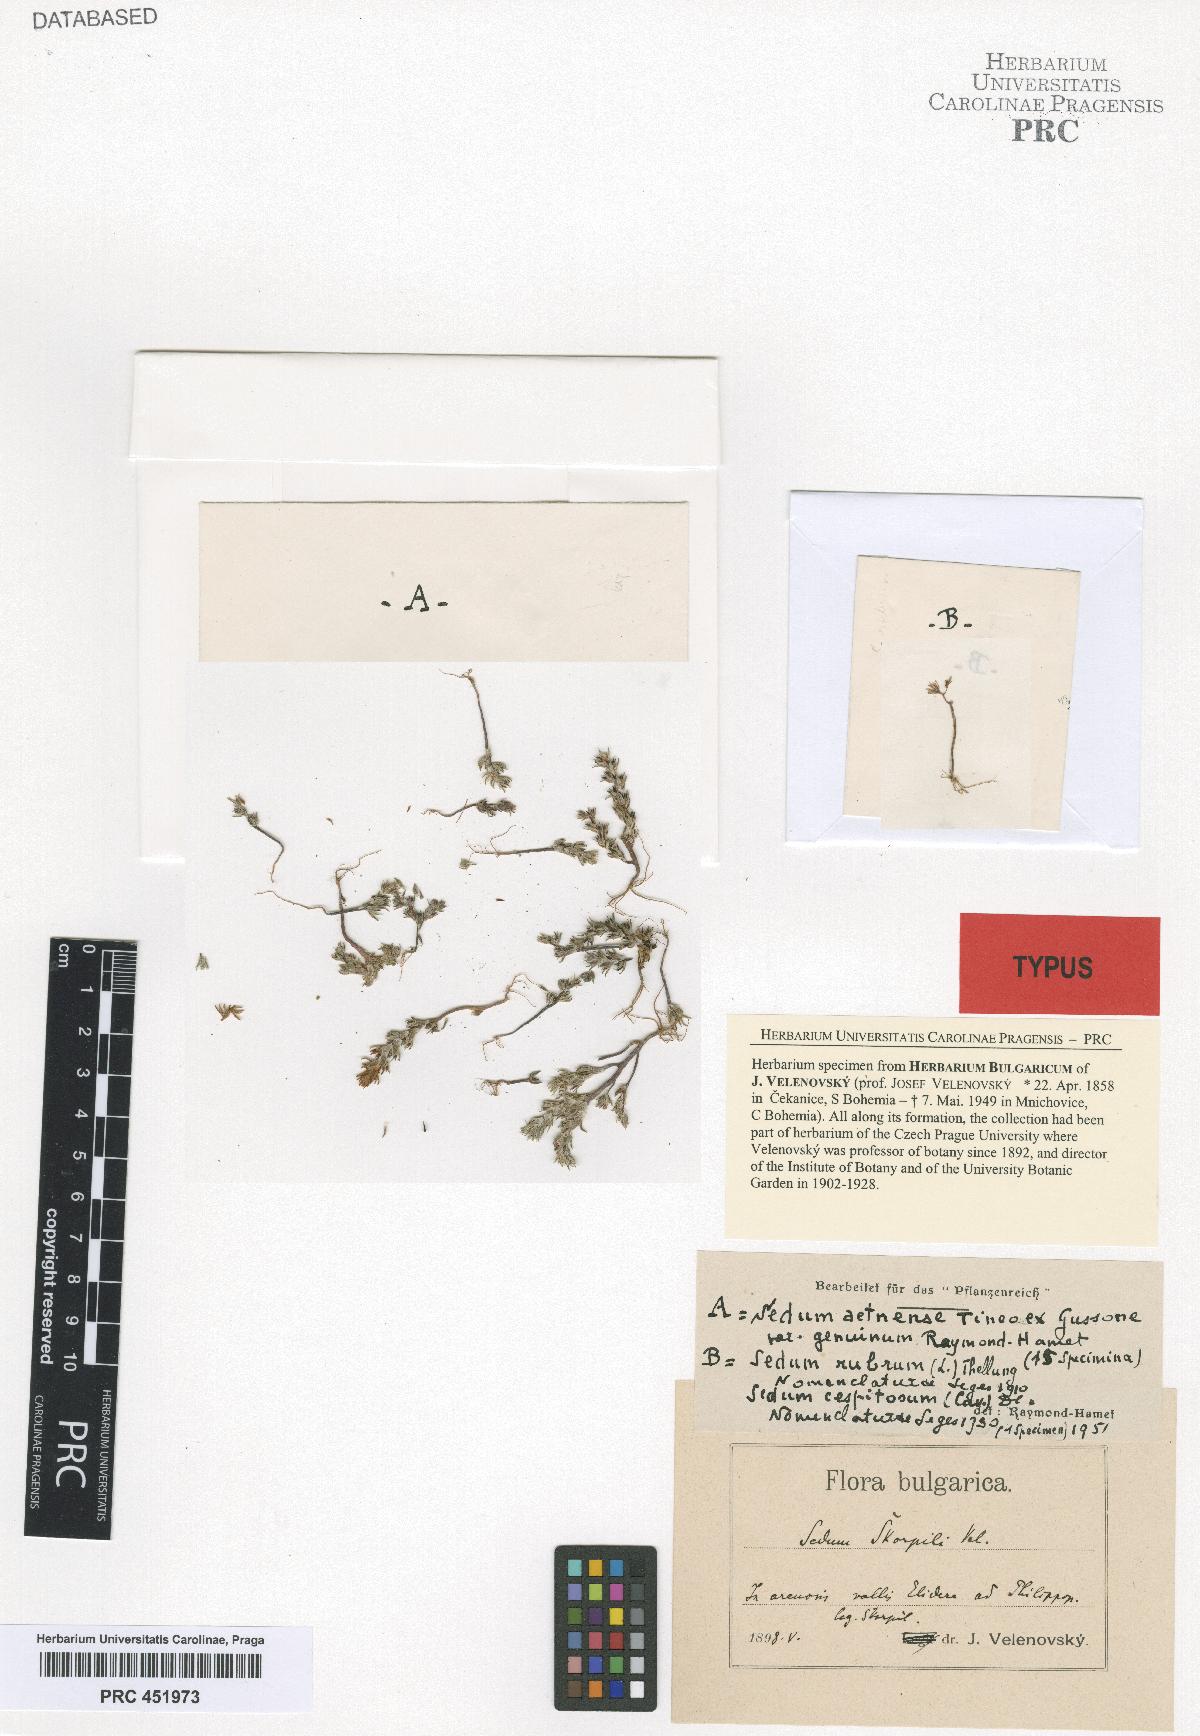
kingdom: Plantae
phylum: Tracheophyta
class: Magnoliopsida
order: Saxifragales
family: Crassulaceae
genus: Sedum
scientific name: Sedum aetnense
